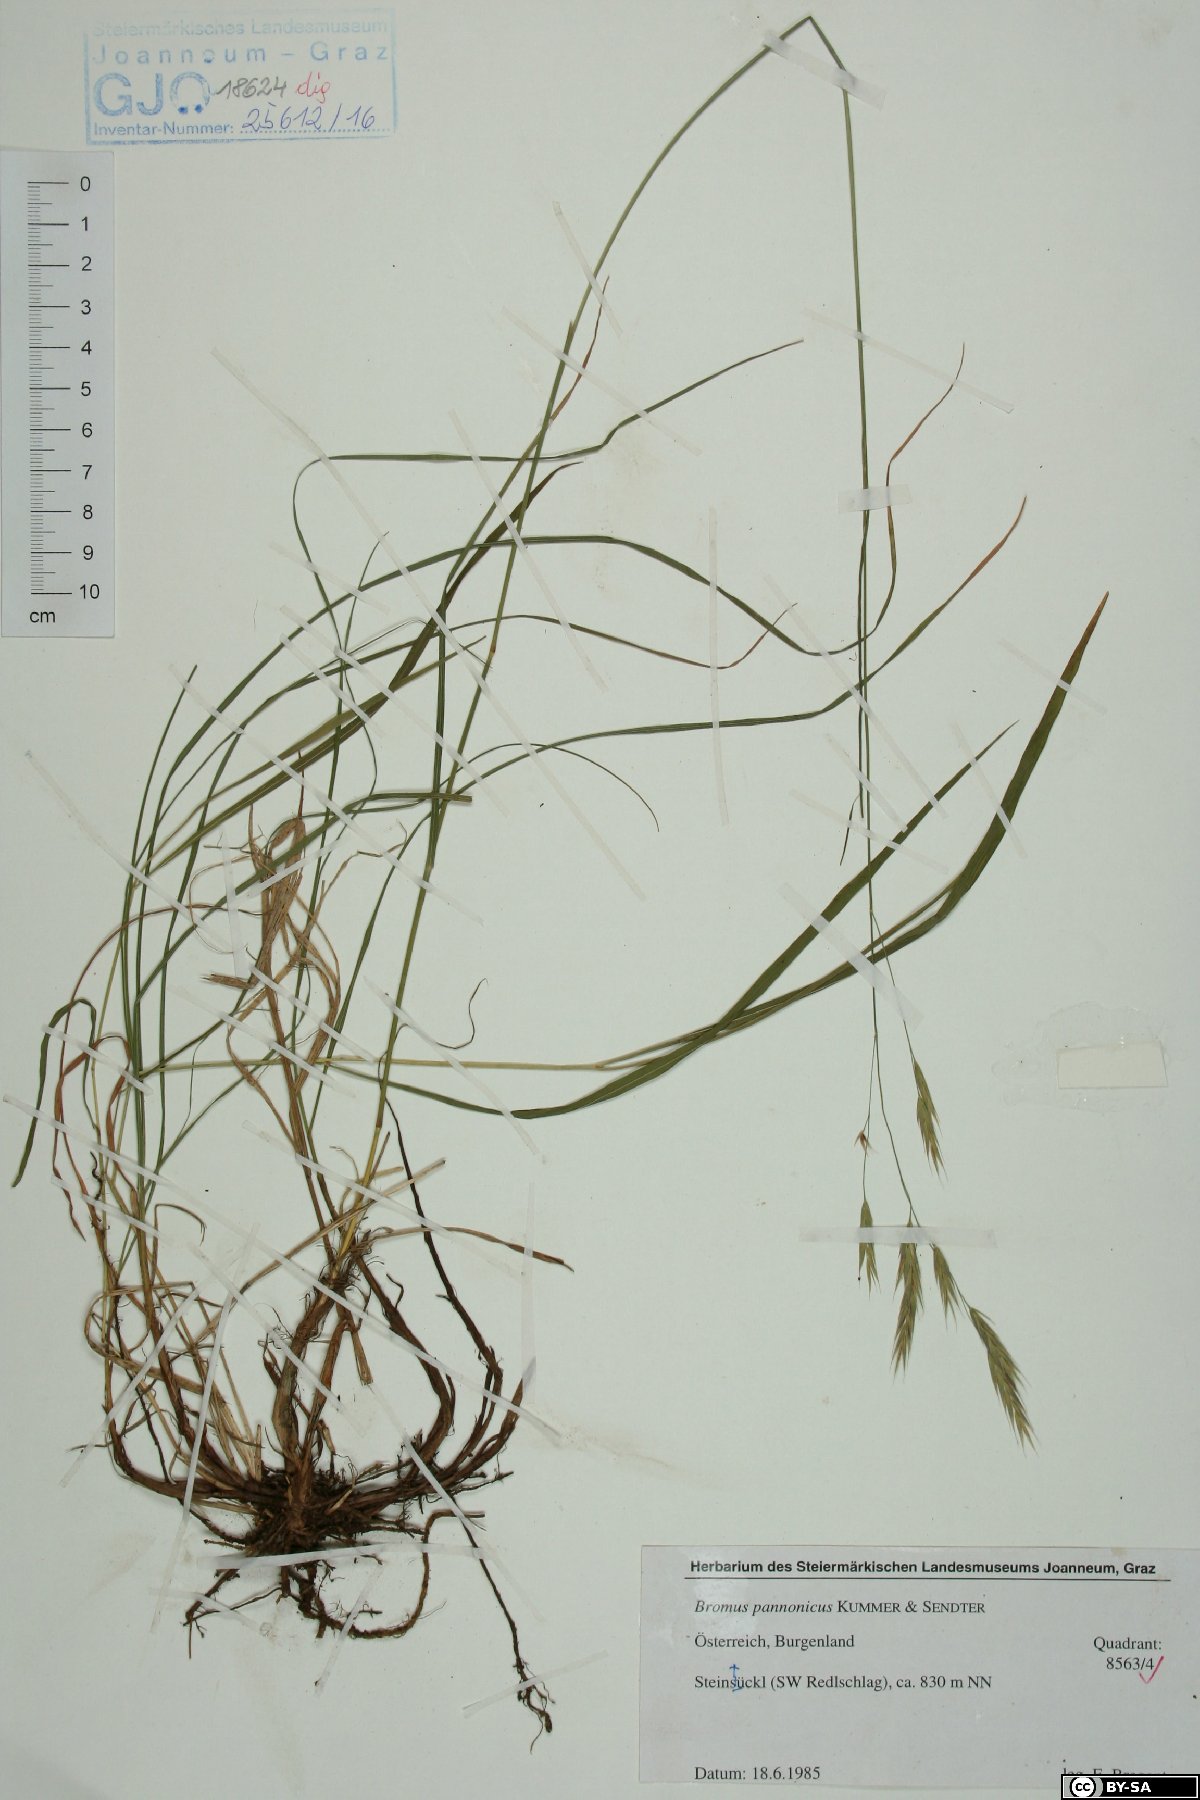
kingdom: Plantae
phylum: Tracheophyta
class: Liliopsida
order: Poales
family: Poaceae
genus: Bromus
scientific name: Bromus pannonicus
